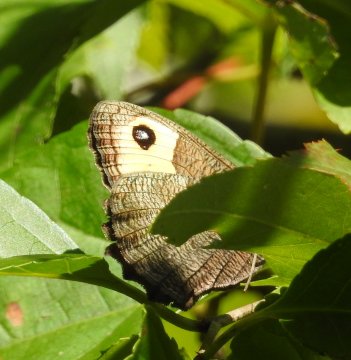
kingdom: Animalia
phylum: Arthropoda
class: Insecta
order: Lepidoptera
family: Nymphalidae
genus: Cercyonis
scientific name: Cercyonis pegala
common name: Common Wood-Nymph
